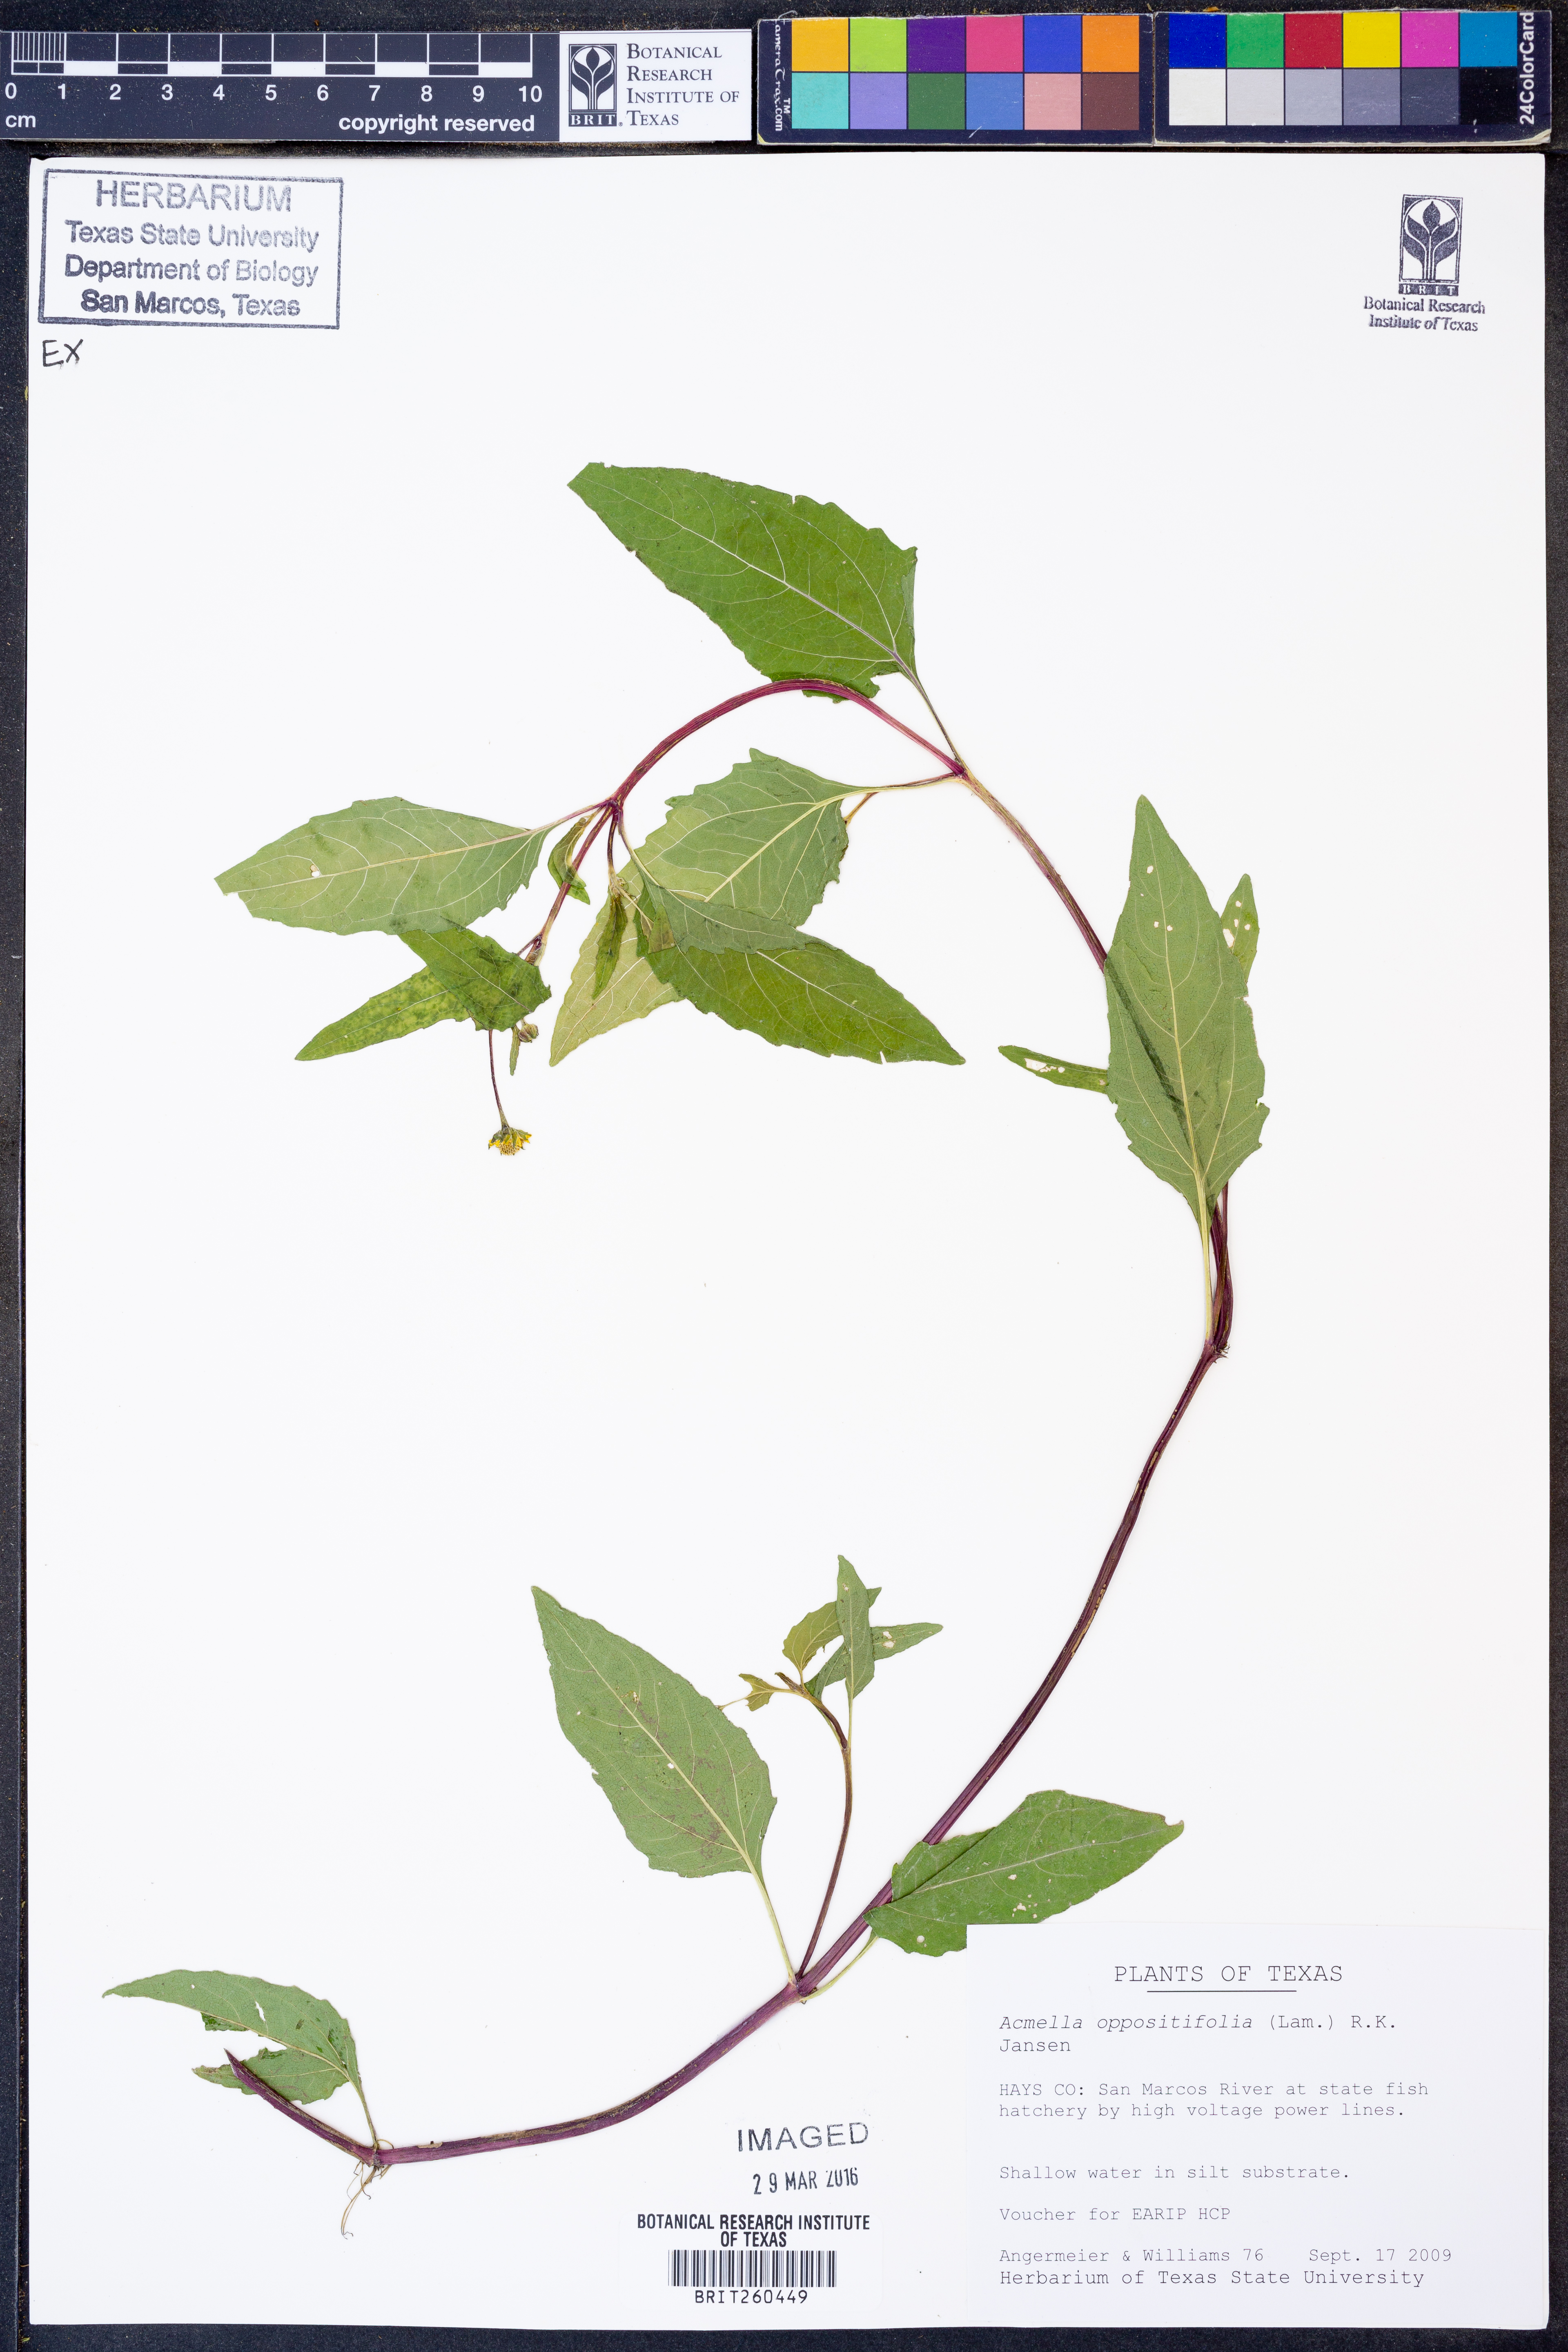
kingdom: Plantae
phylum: Tracheophyta
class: Magnoliopsida
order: Asterales
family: Asteraceae
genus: Heliopsis
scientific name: Heliopsis buphthalmoides
